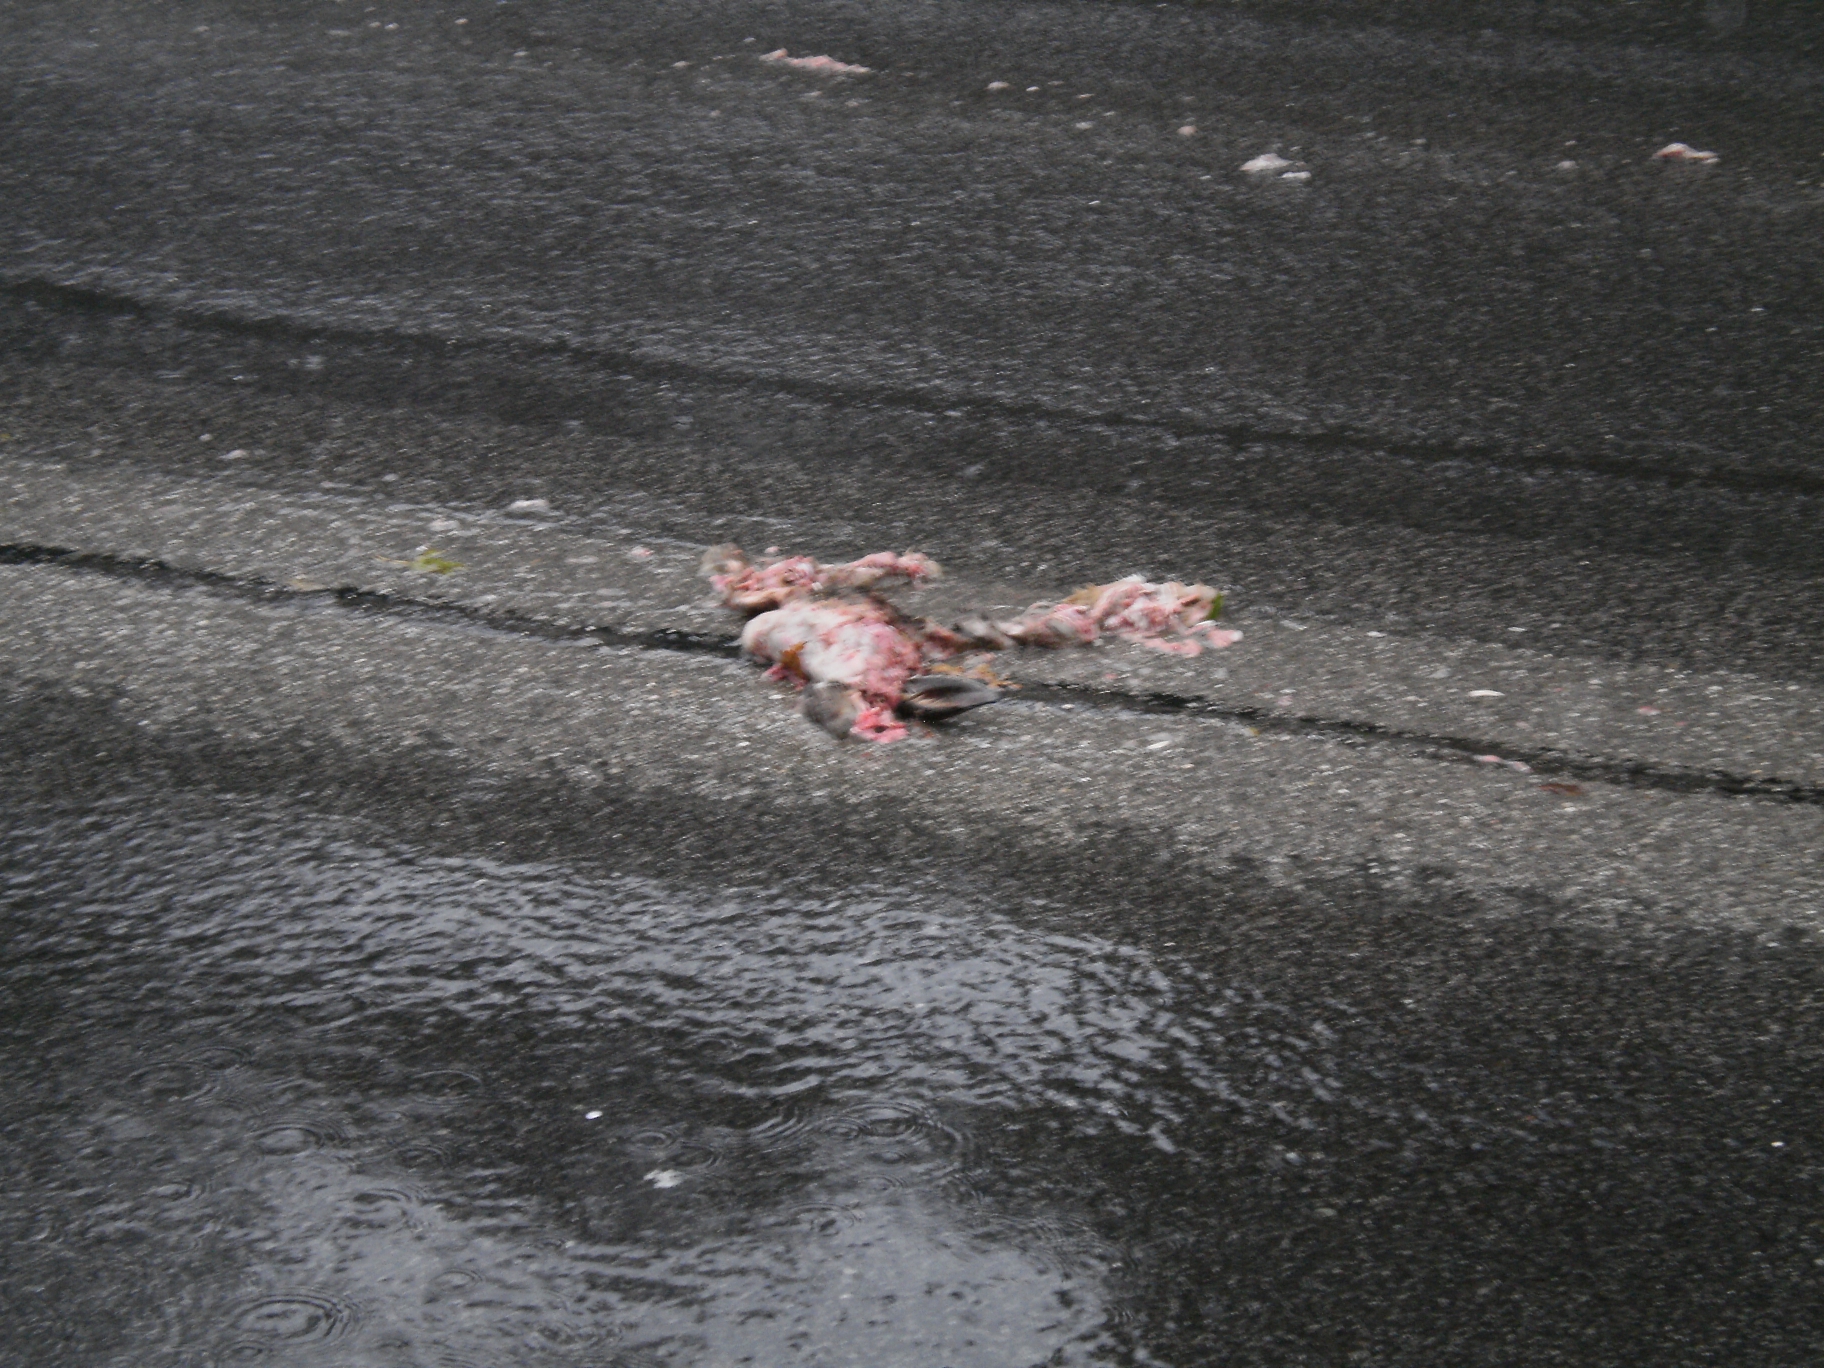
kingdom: Animalia
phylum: Chordata
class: Mammalia
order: Lagomorpha
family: Leporidae
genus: Lepus
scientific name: Lepus europaeus
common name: European hare
